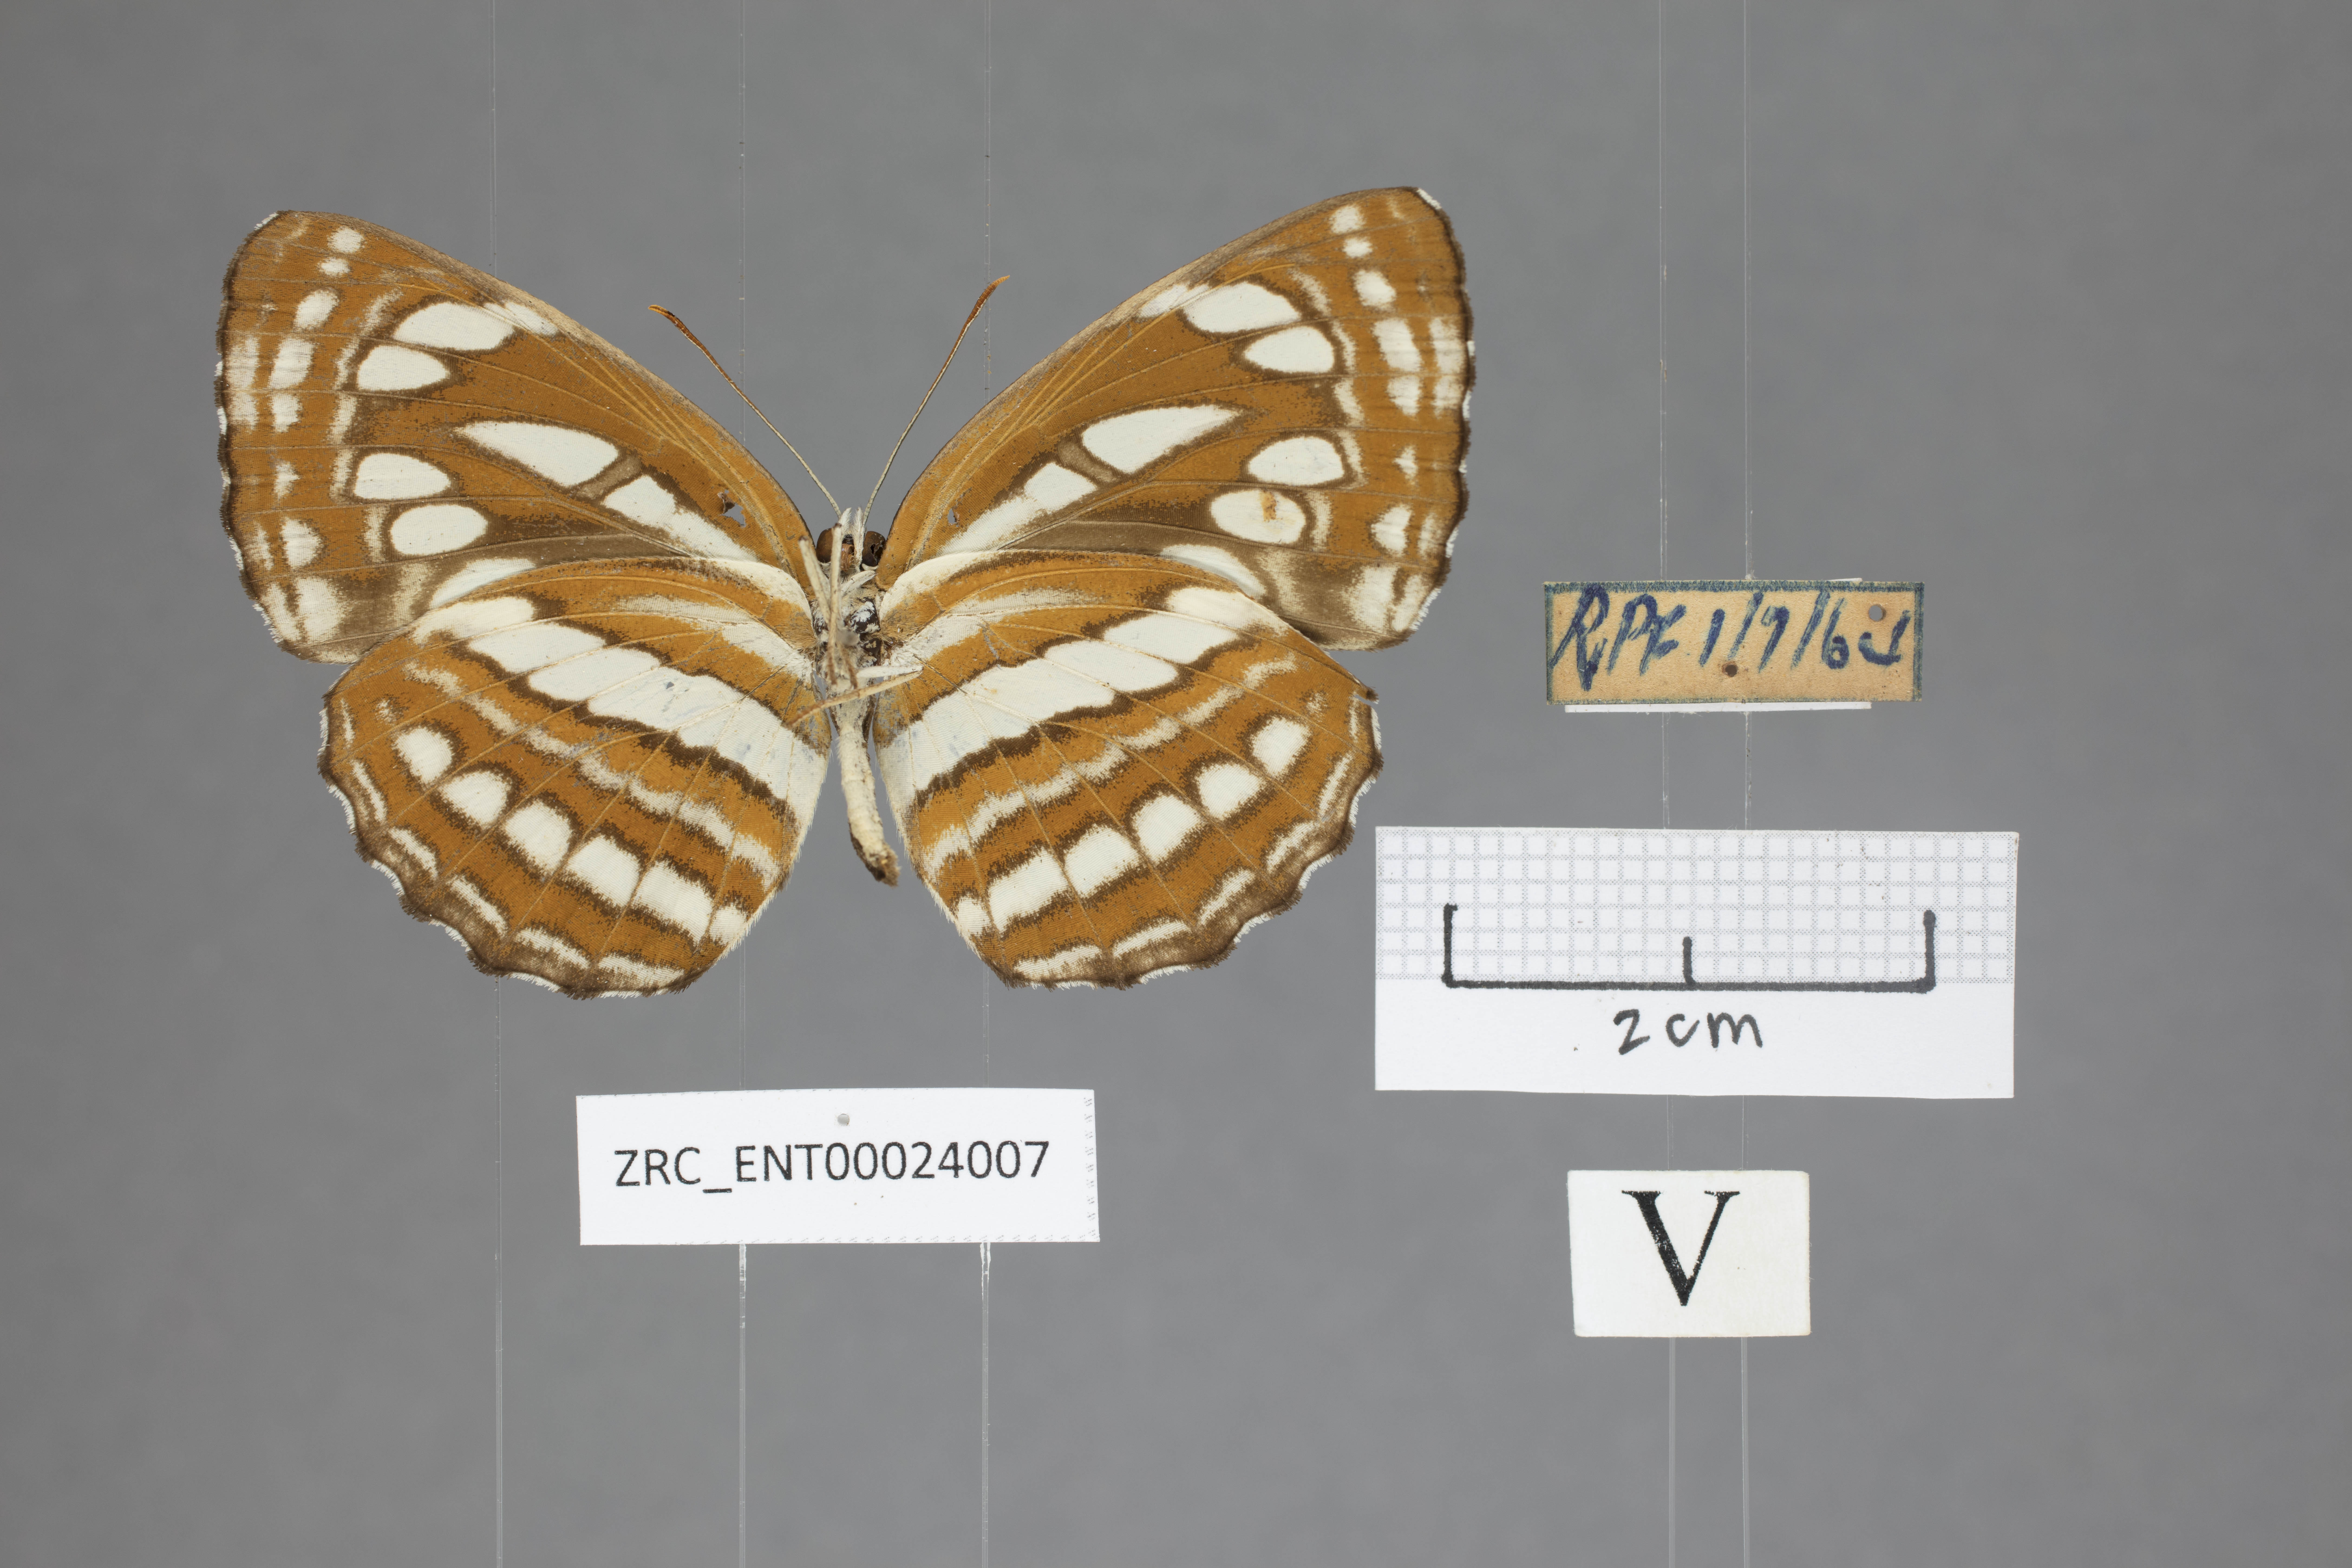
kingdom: Animalia
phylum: Arthropoda
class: Insecta
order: Lepidoptera
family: Nymphalidae
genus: Neptis
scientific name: Neptis hylas
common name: Common sailer
